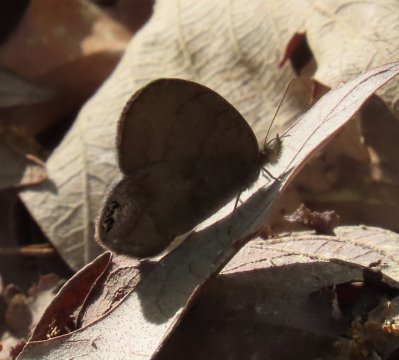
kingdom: Animalia
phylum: Arthropoda
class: Insecta
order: Lepidoptera
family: Nymphalidae
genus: Euptychia
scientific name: Euptychia cornelius
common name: Gemmed Satyr
